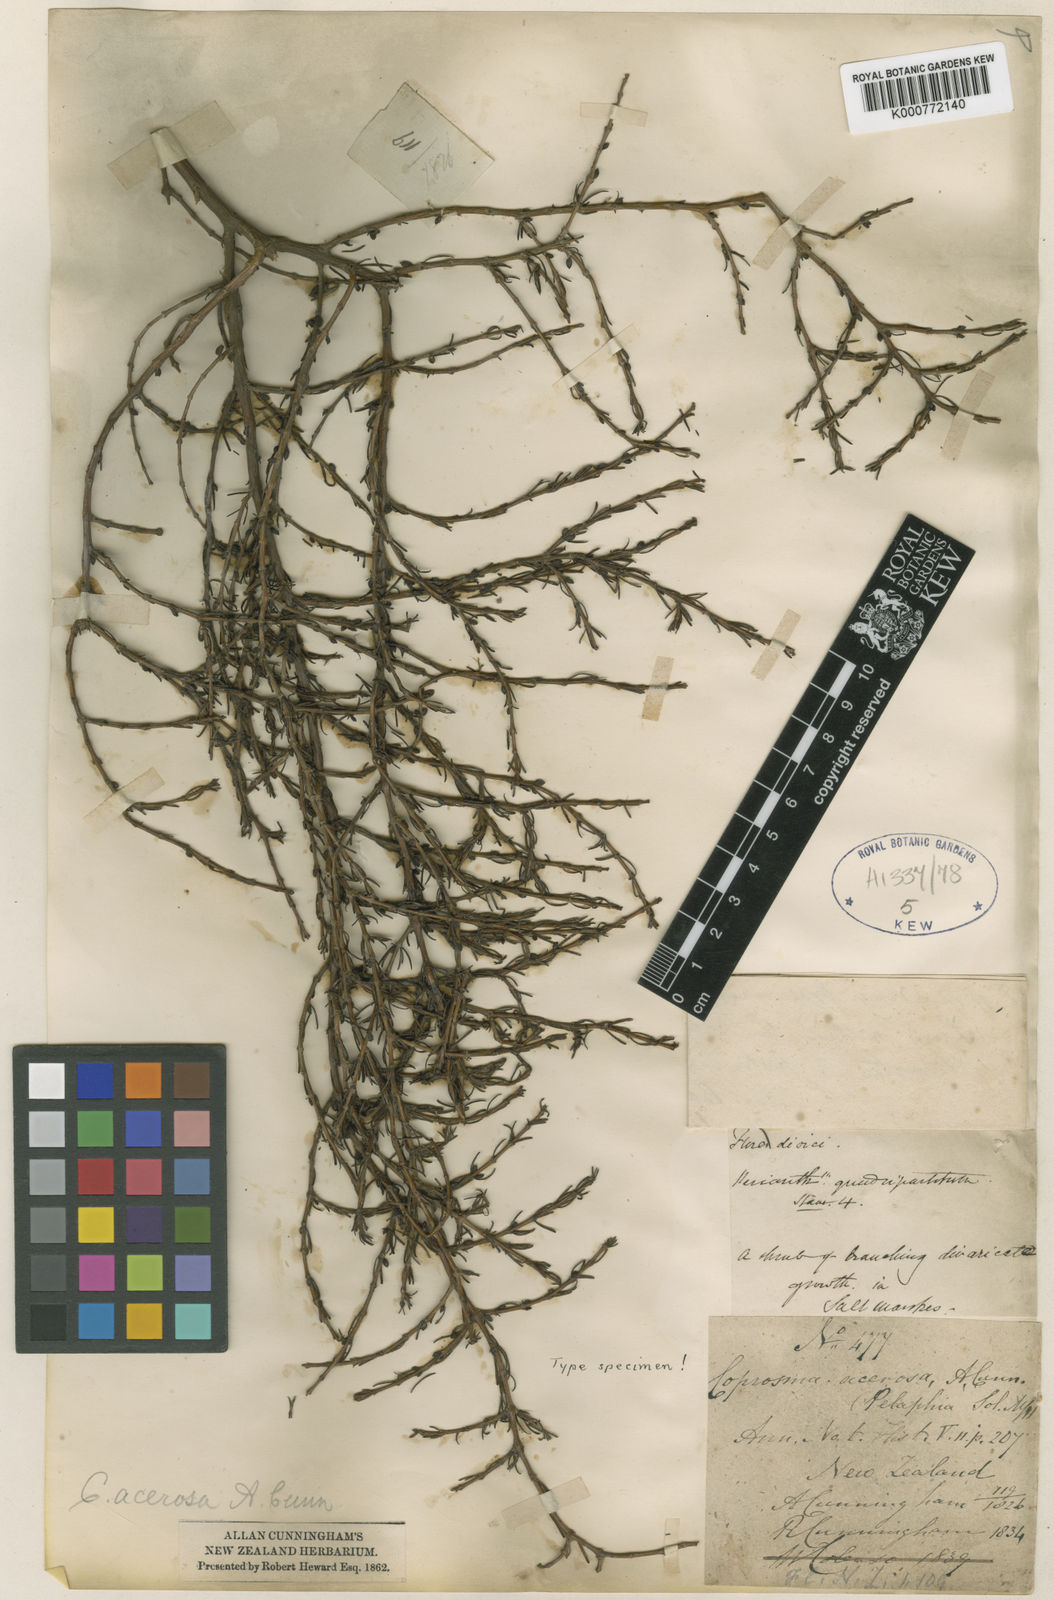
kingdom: Plantae
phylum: Tracheophyta
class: Magnoliopsida
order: Gentianales
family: Rubiaceae
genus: Coprosma
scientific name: Coprosma acerosa
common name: Sand coprosma
